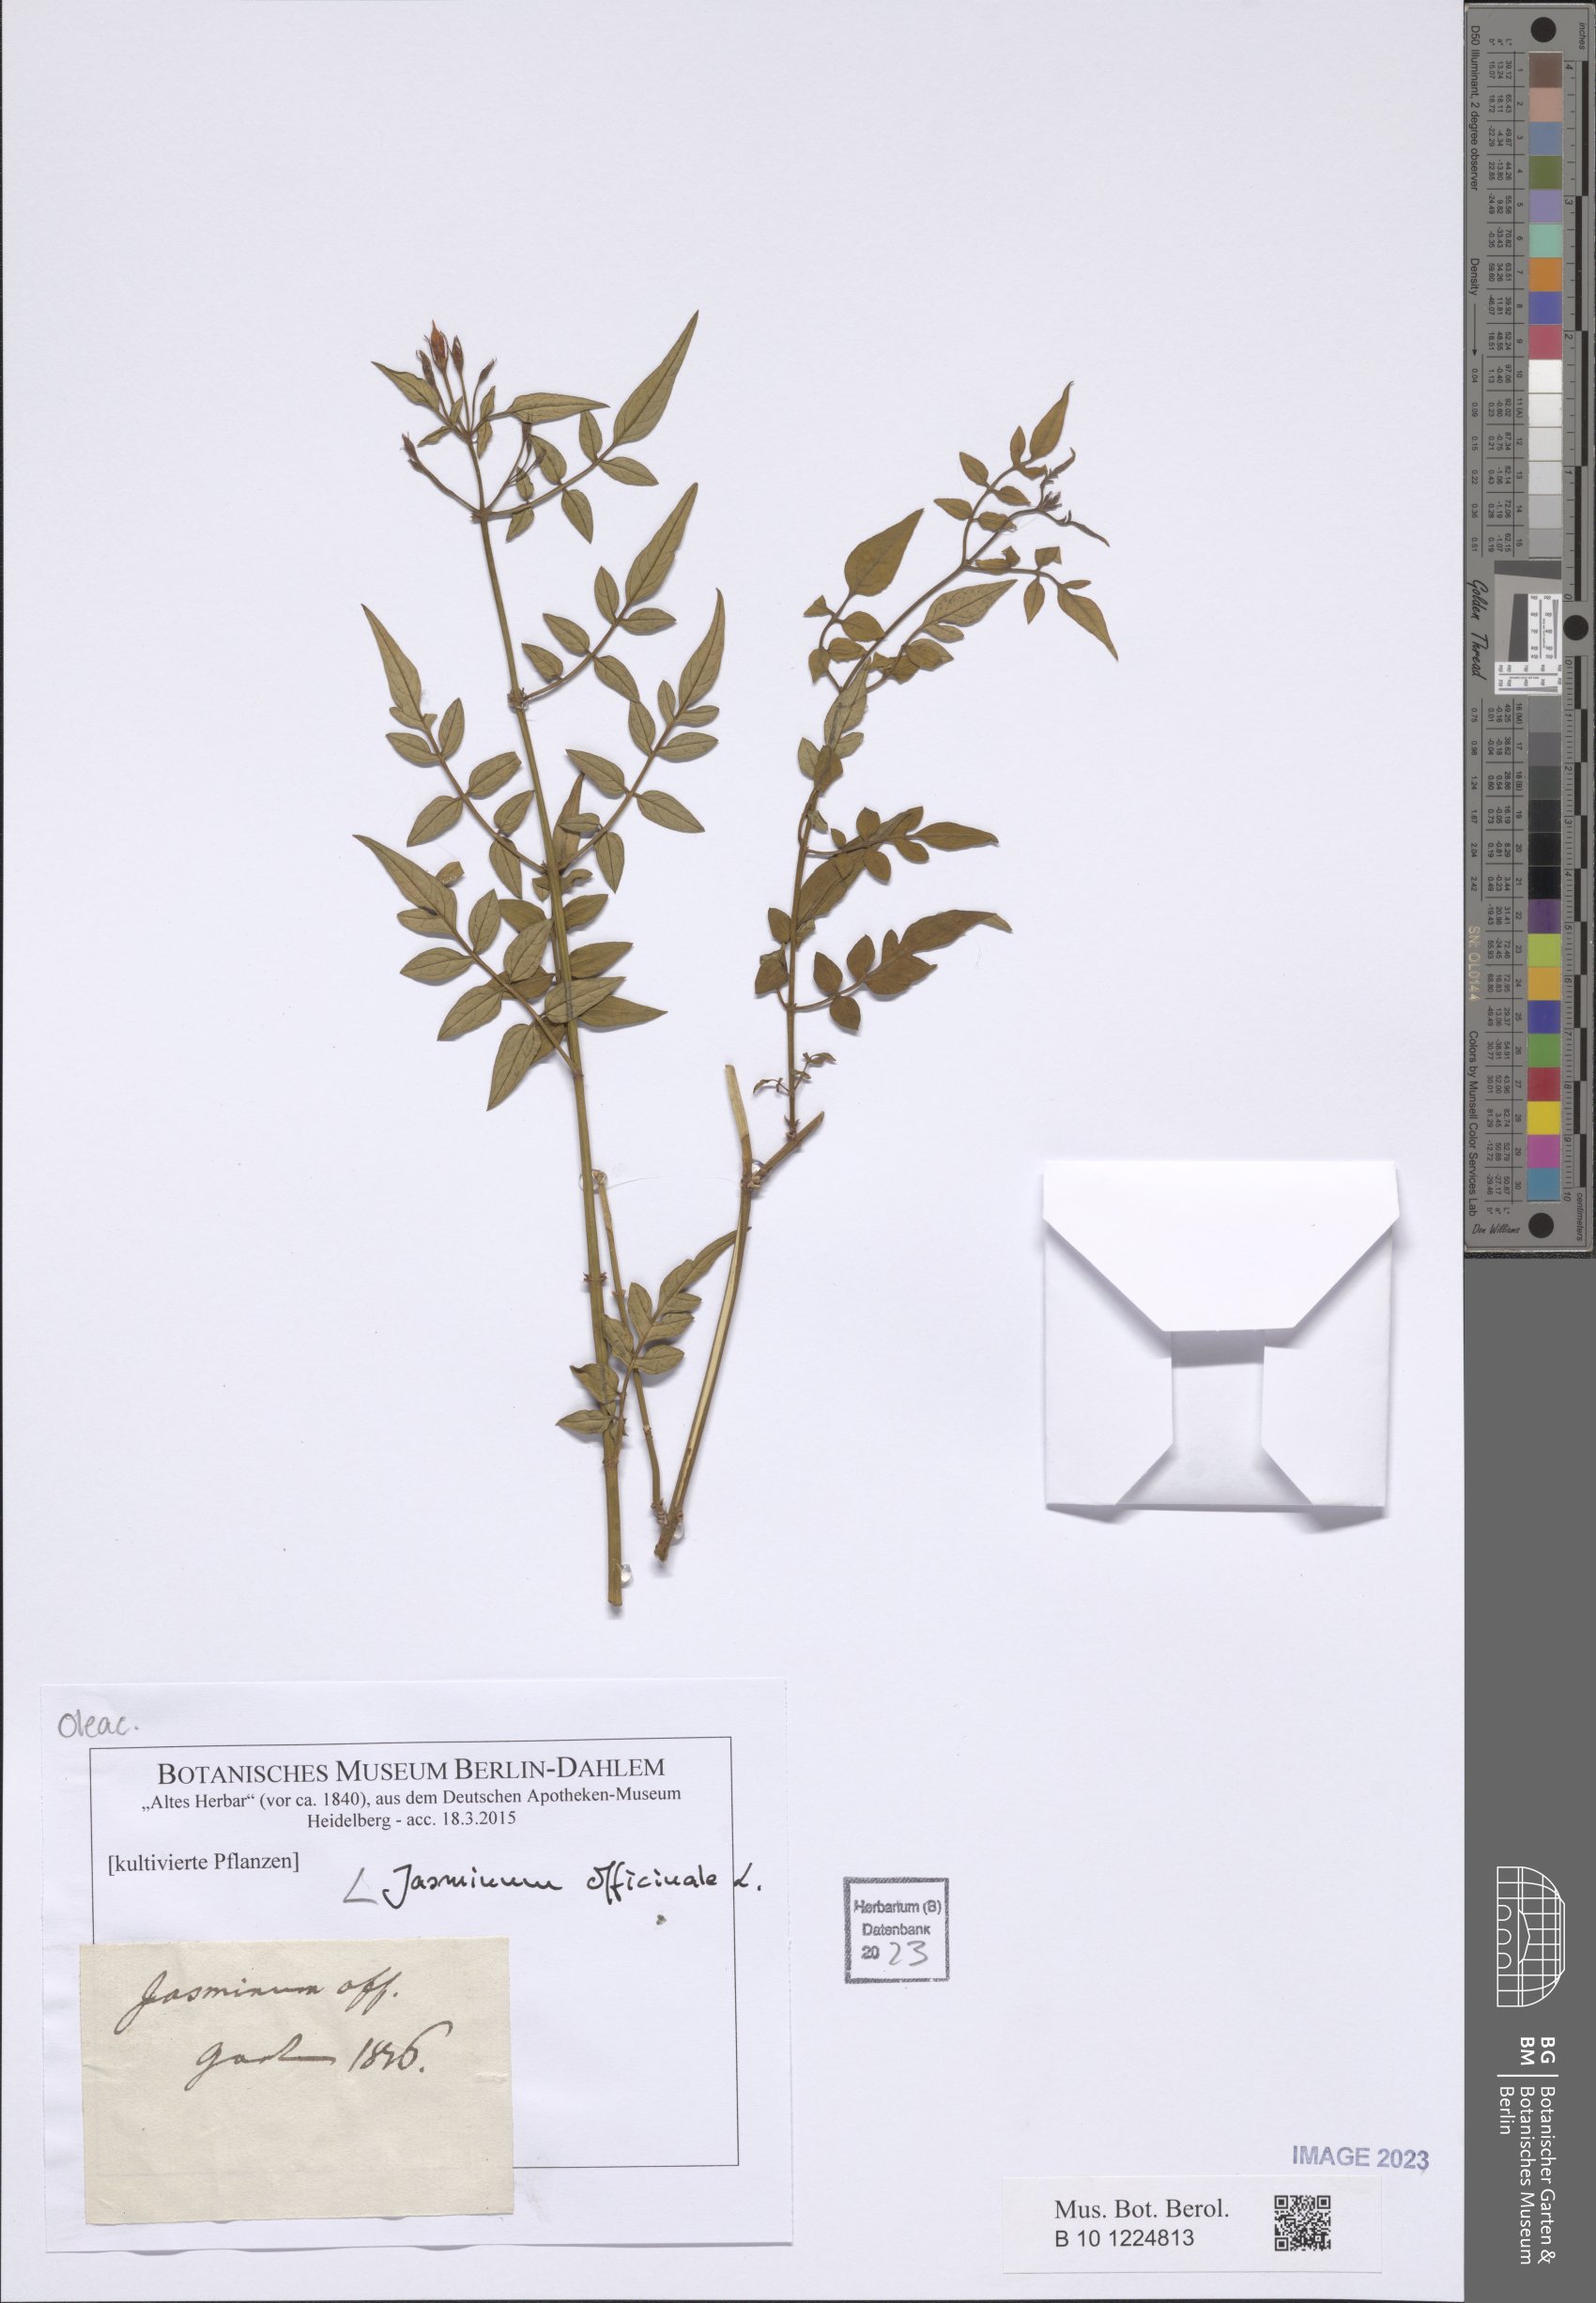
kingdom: Plantae
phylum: Tracheophyta
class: Magnoliopsida
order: Lamiales
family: Oleaceae
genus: Jasminum
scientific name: Jasminum officinale
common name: Summer jasmine
